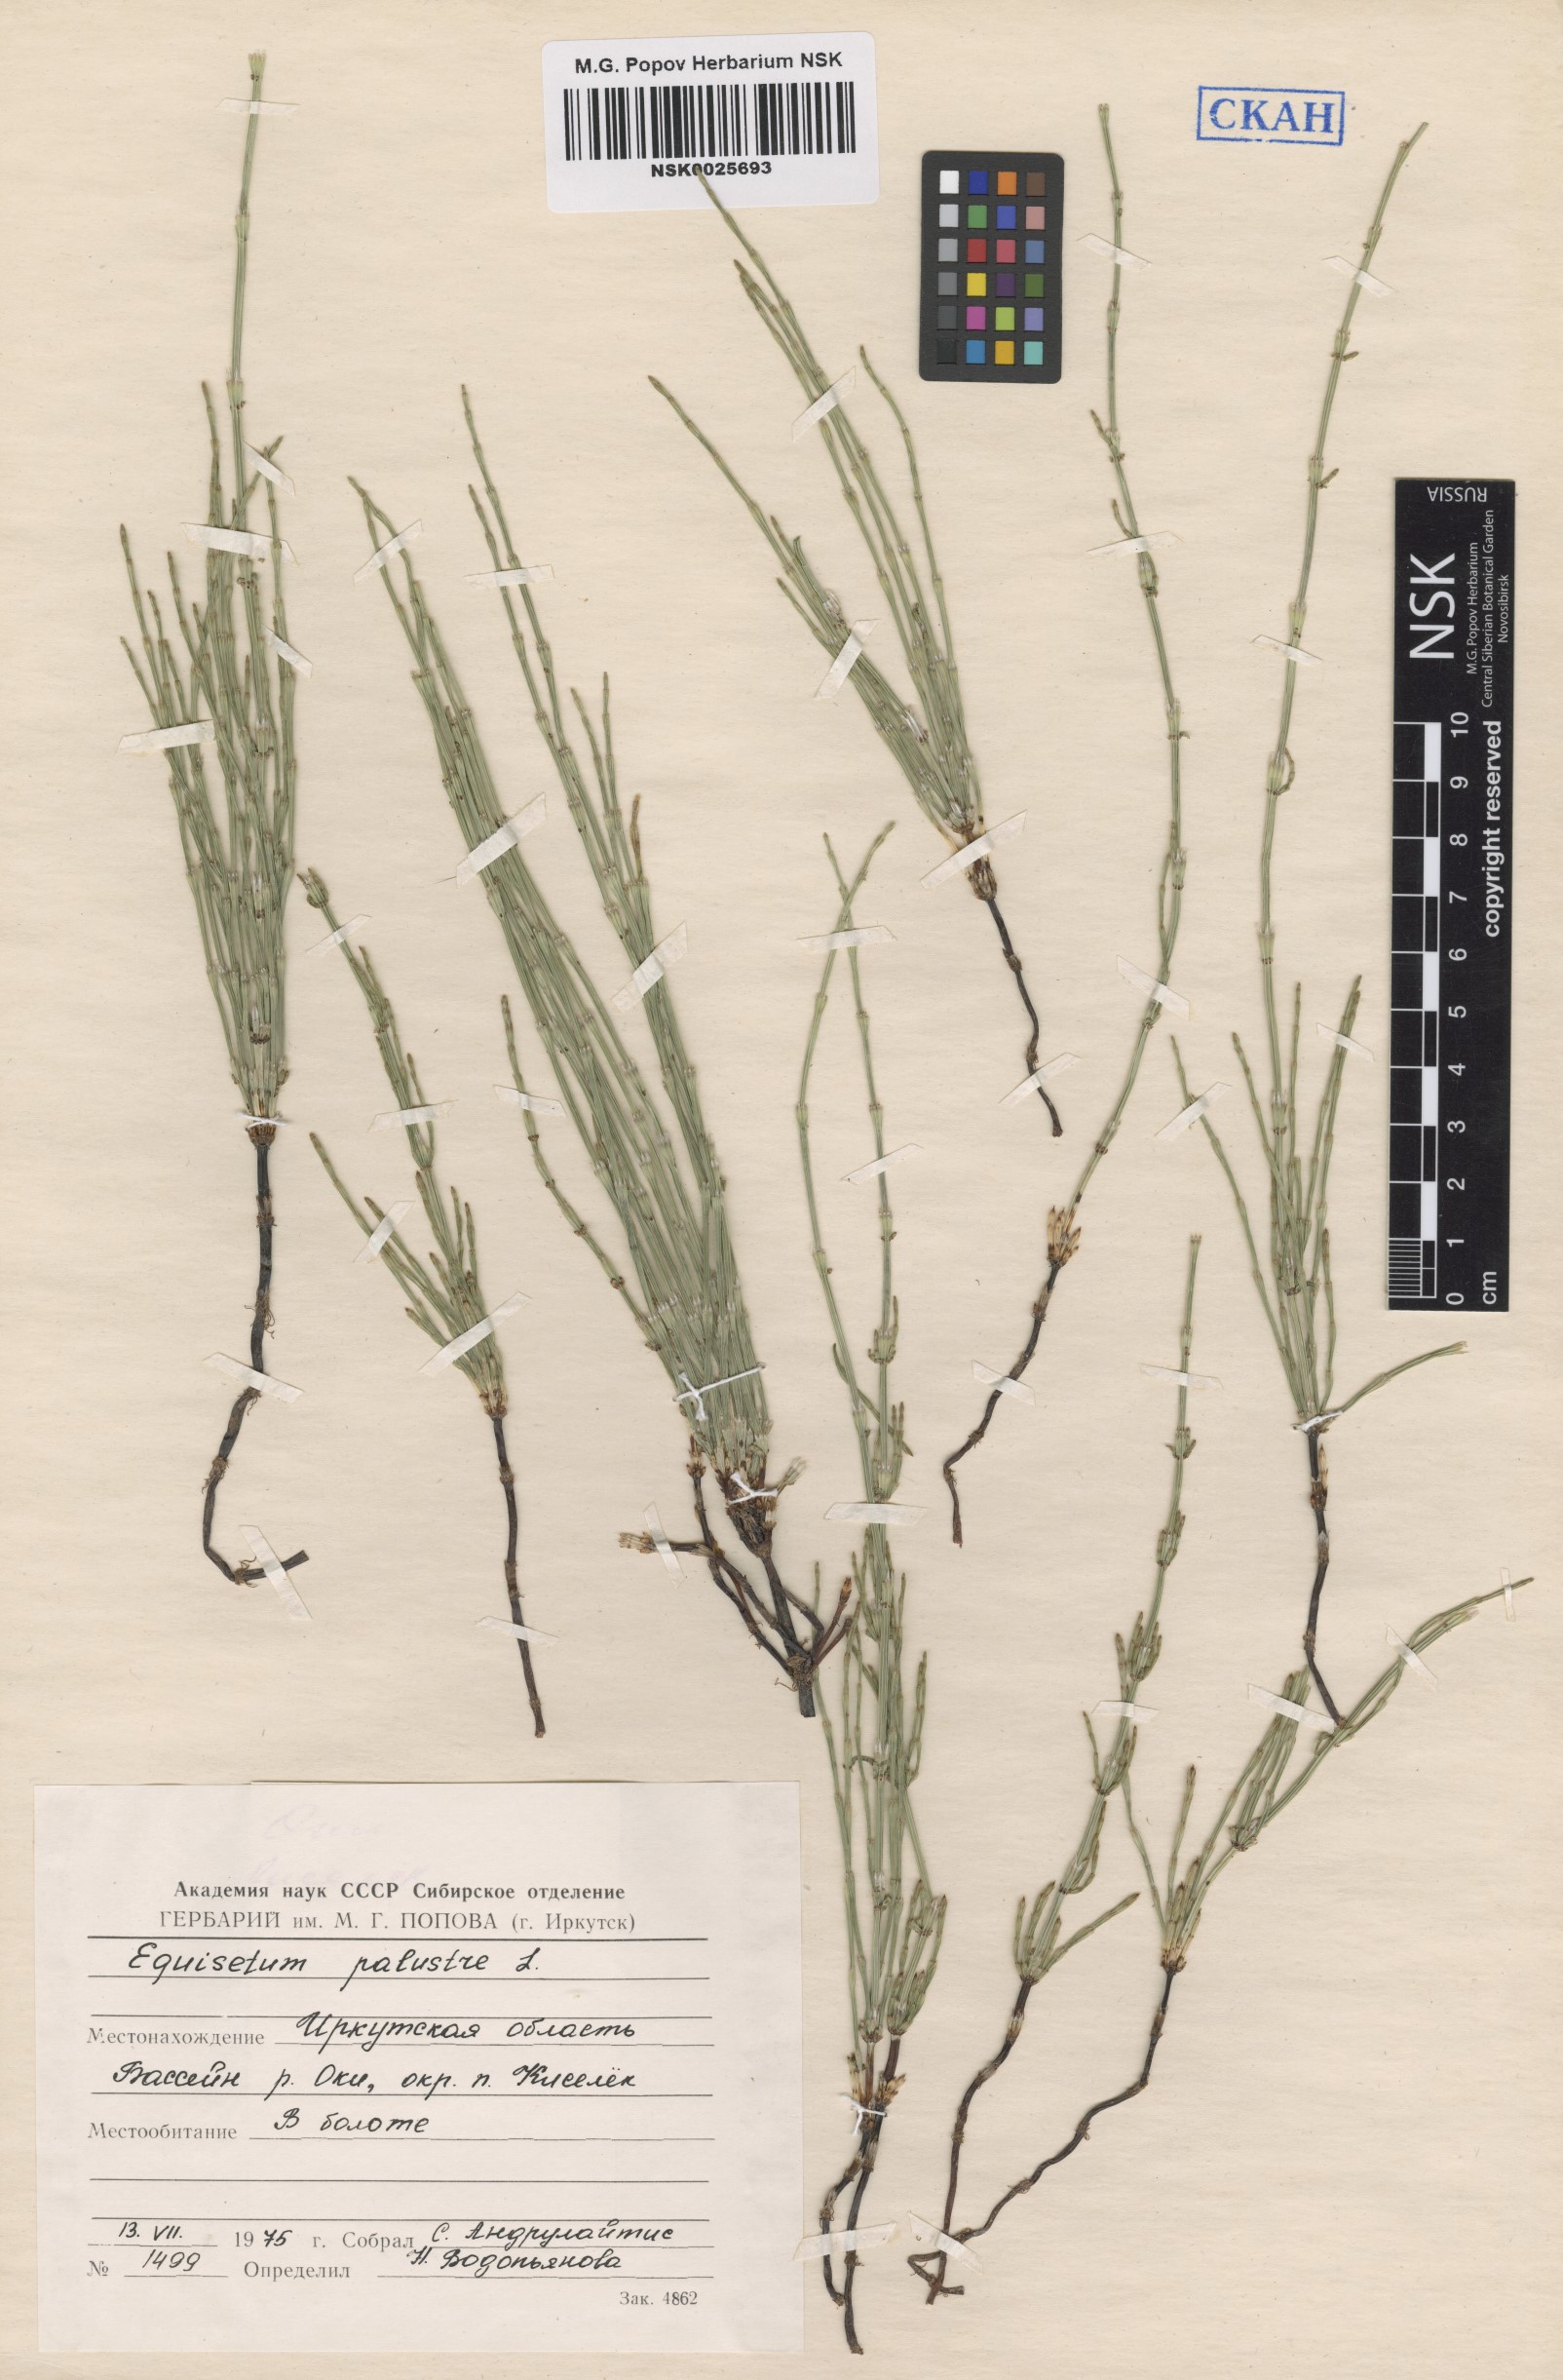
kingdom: Plantae
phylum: Tracheophyta
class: Polypodiopsida
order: Equisetales
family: Equisetaceae
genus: Equisetum
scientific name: Equisetum palustre
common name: Marsh horsetail
